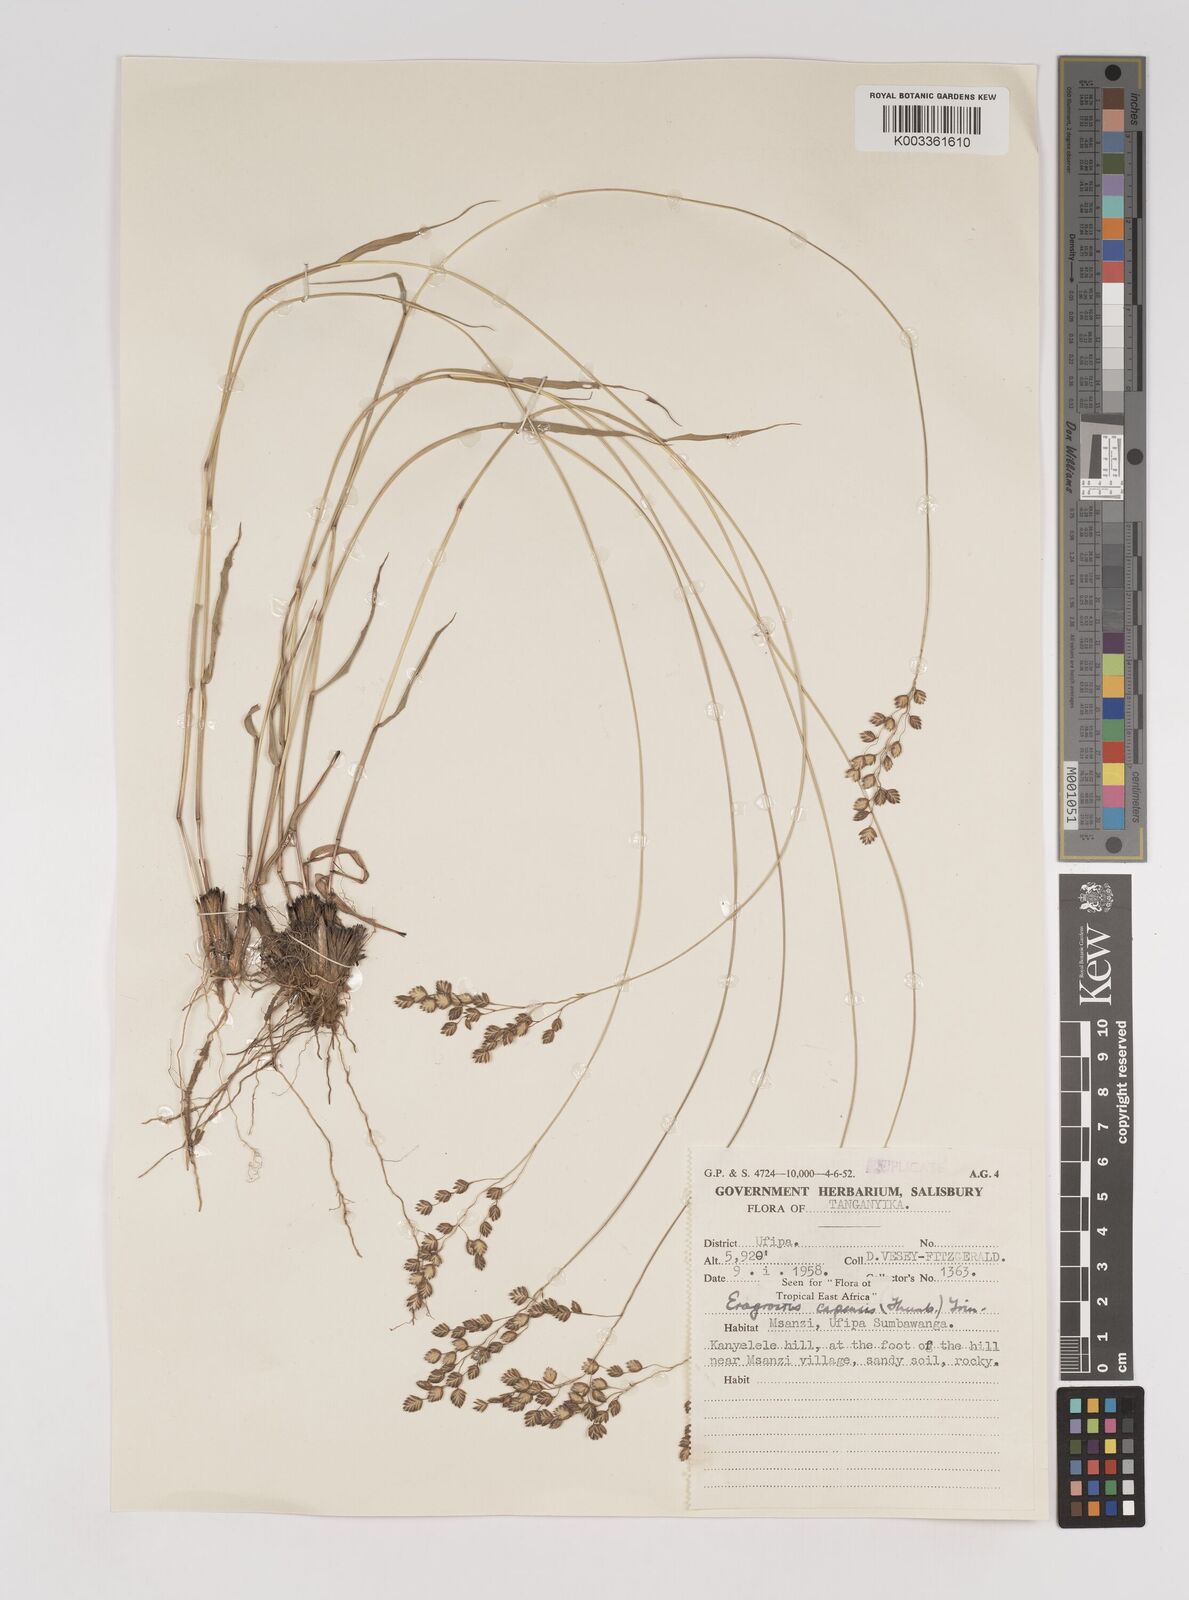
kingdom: Plantae
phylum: Tracheophyta
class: Liliopsida
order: Poales
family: Poaceae
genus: Eragrostis
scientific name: Eragrostis capensis
